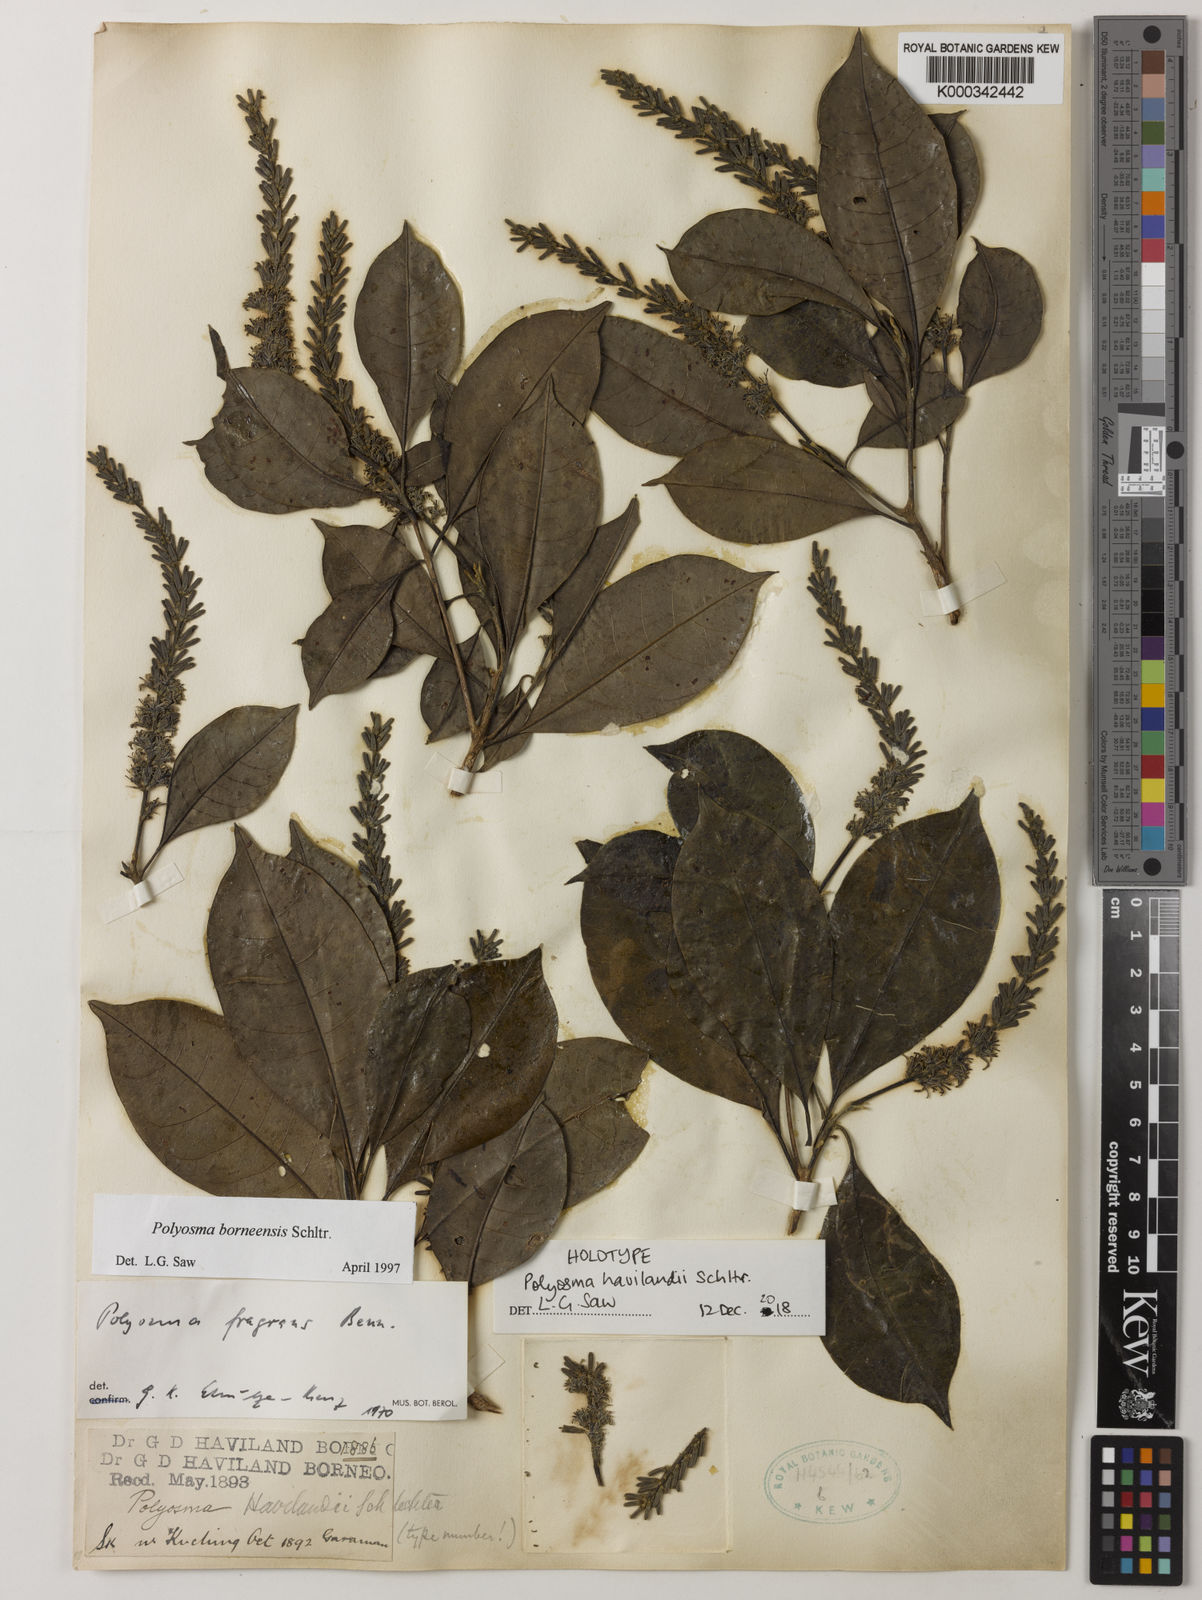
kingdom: Plantae
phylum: Tracheophyta
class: Magnoliopsida
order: Escalloniales
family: Escalloniaceae
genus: Polyosma
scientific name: Polyosma borneensis
